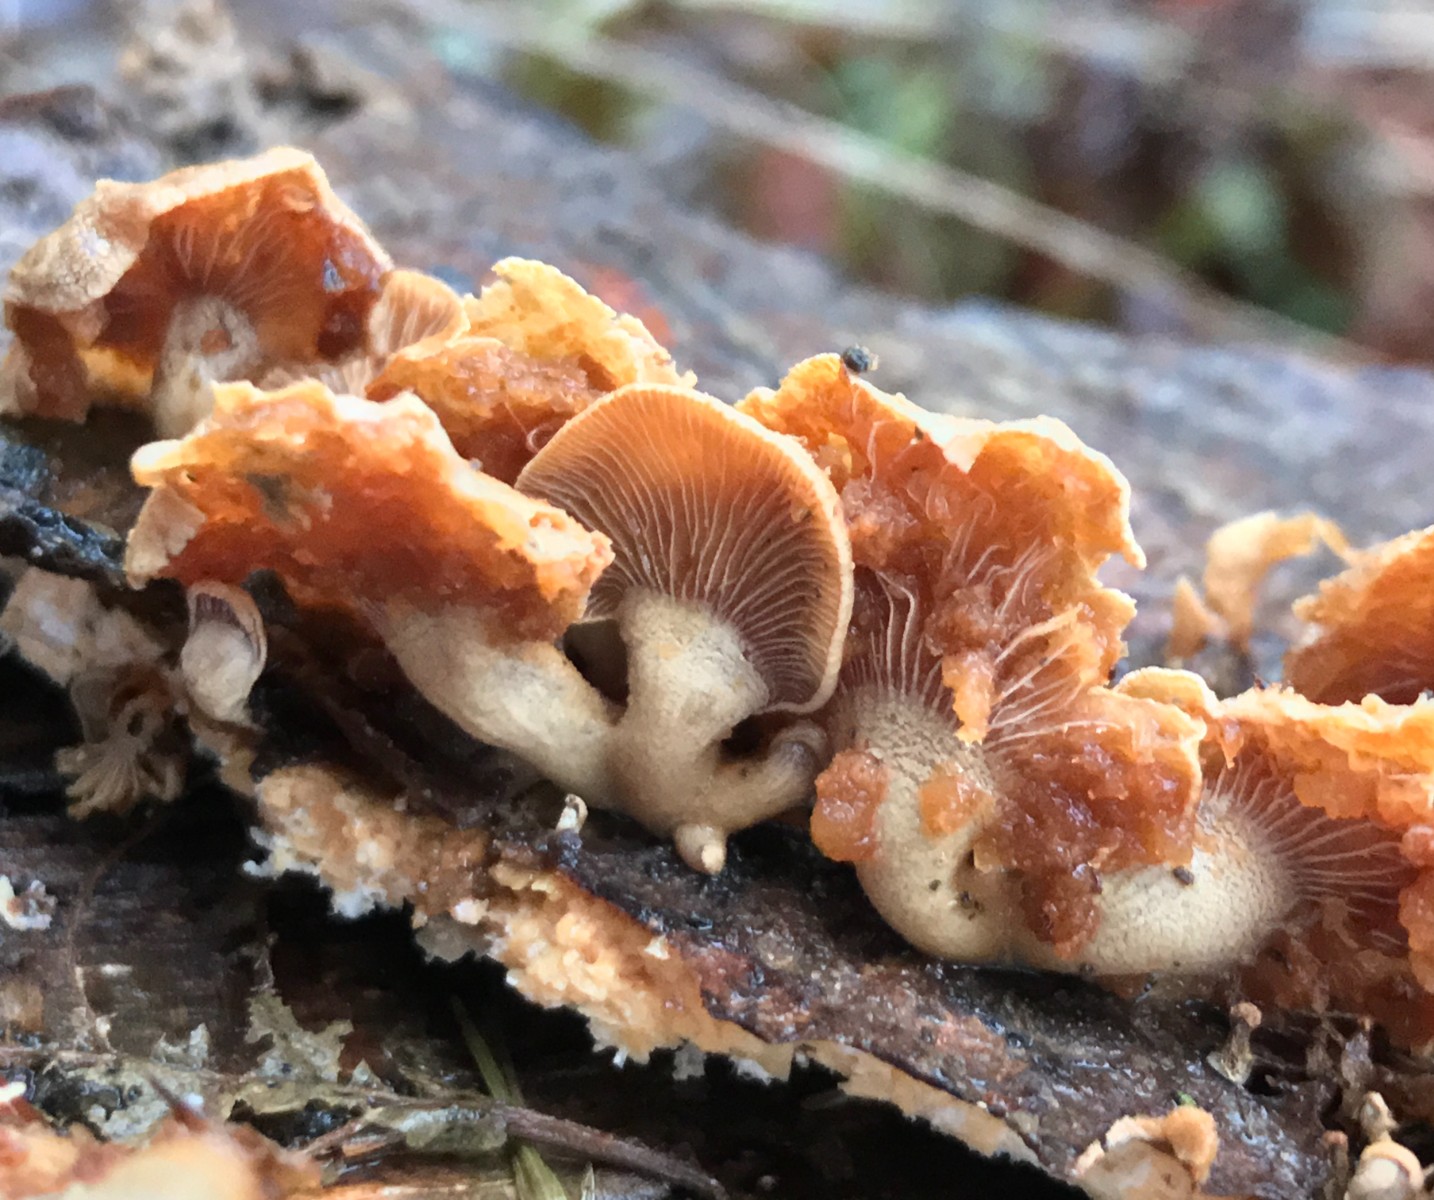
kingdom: Fungi
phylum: Basidiomycota
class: Agaricomycetes
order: Agaricales
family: Mycenaceae
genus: Panellus
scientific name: Panellus stipticus
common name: kliddet epaulethat
